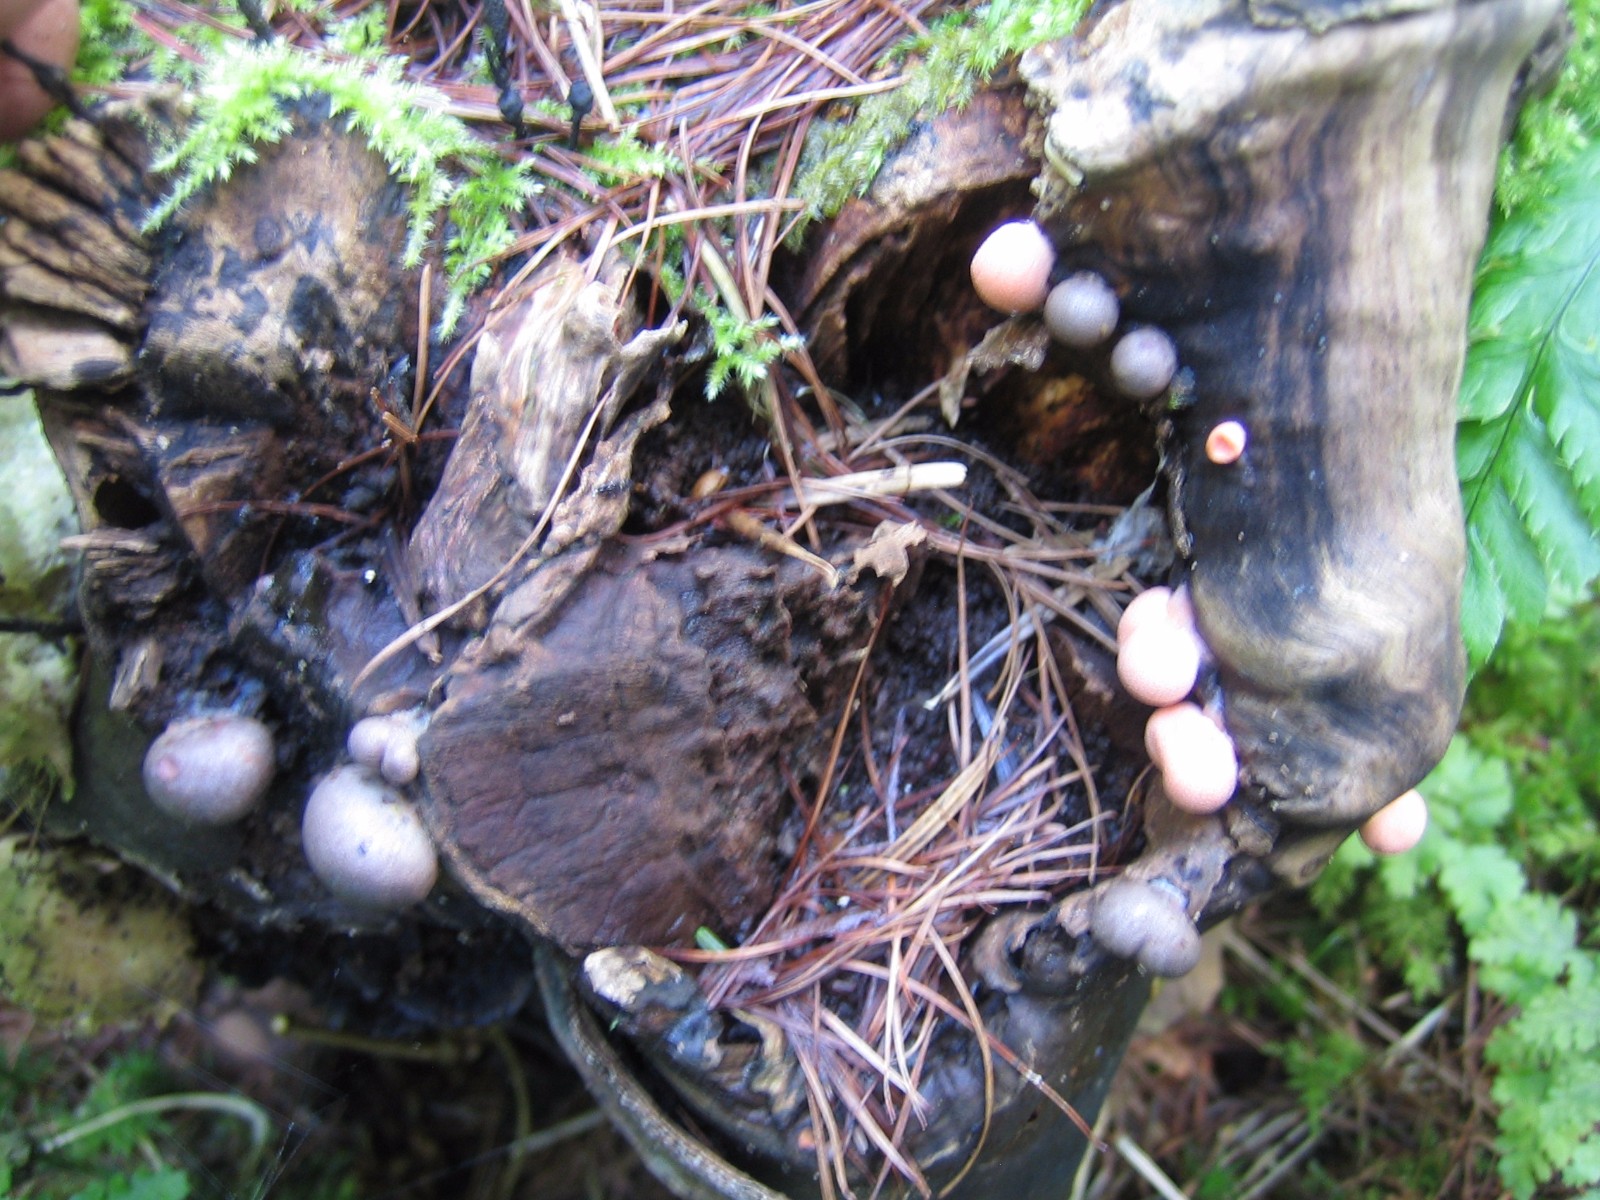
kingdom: Protozoa
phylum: Mycetozoa
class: Myxomycetes
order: Cribrariales
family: Tubiferaceae
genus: Lycogala
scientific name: Lycogala epidendrum
